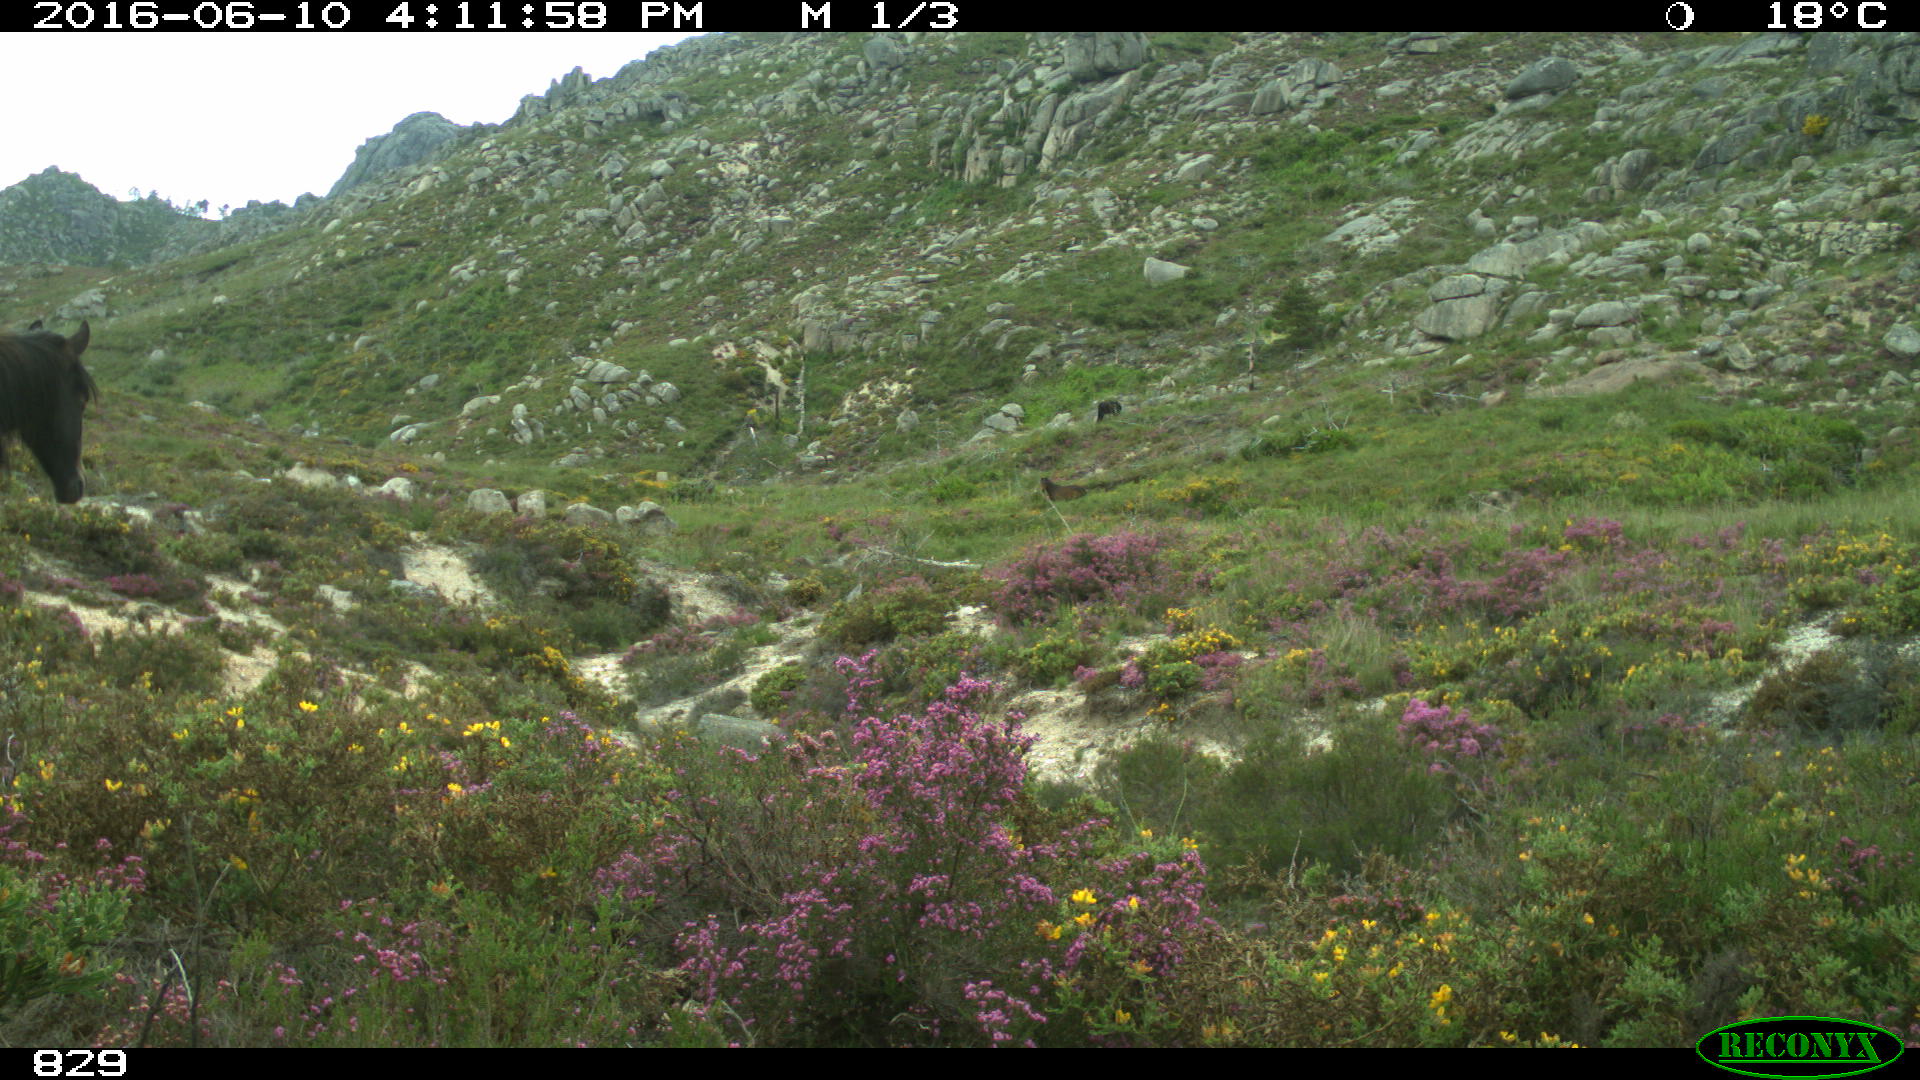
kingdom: Animalia
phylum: Chordata
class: Mammalia
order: Perissodactyla
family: Equidae
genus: Equus
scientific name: Equus caballus
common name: Horse
